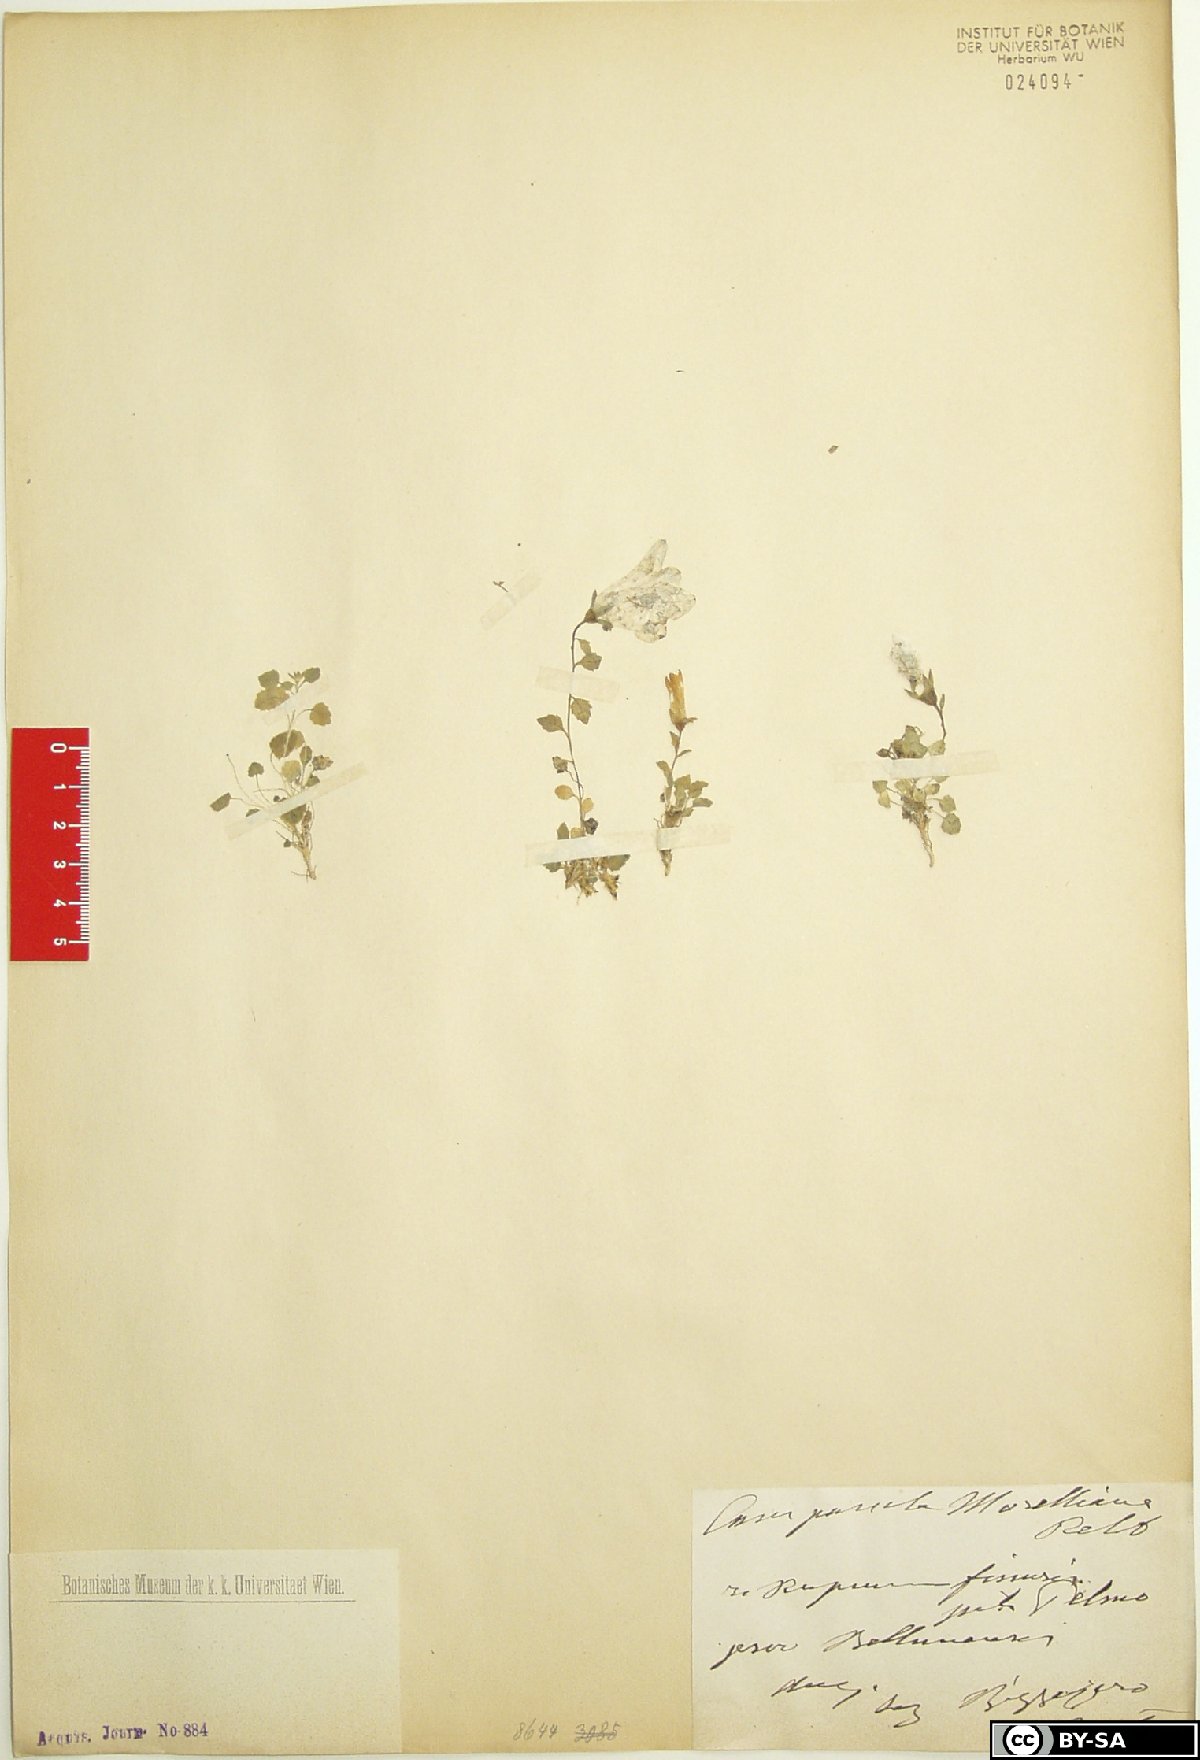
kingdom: Plantae
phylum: Tracheophyta
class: Magnoliopsida
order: Asterales
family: Campanulaceae
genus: Campanula
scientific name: Campanula morettiana
